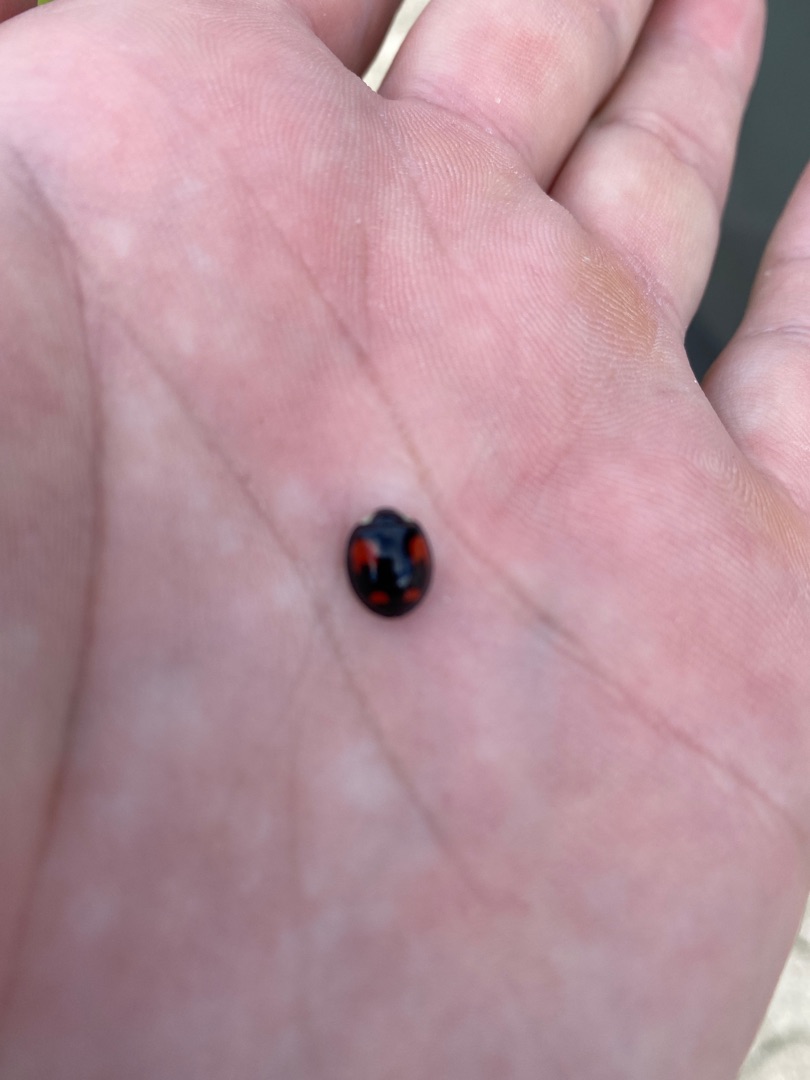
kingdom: Animalia
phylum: Arthropoda
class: Insecta
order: Coleoptera
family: Coccinellidae
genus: Harmonia
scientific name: Harmonia axyridis
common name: Harlekinmariehøne
